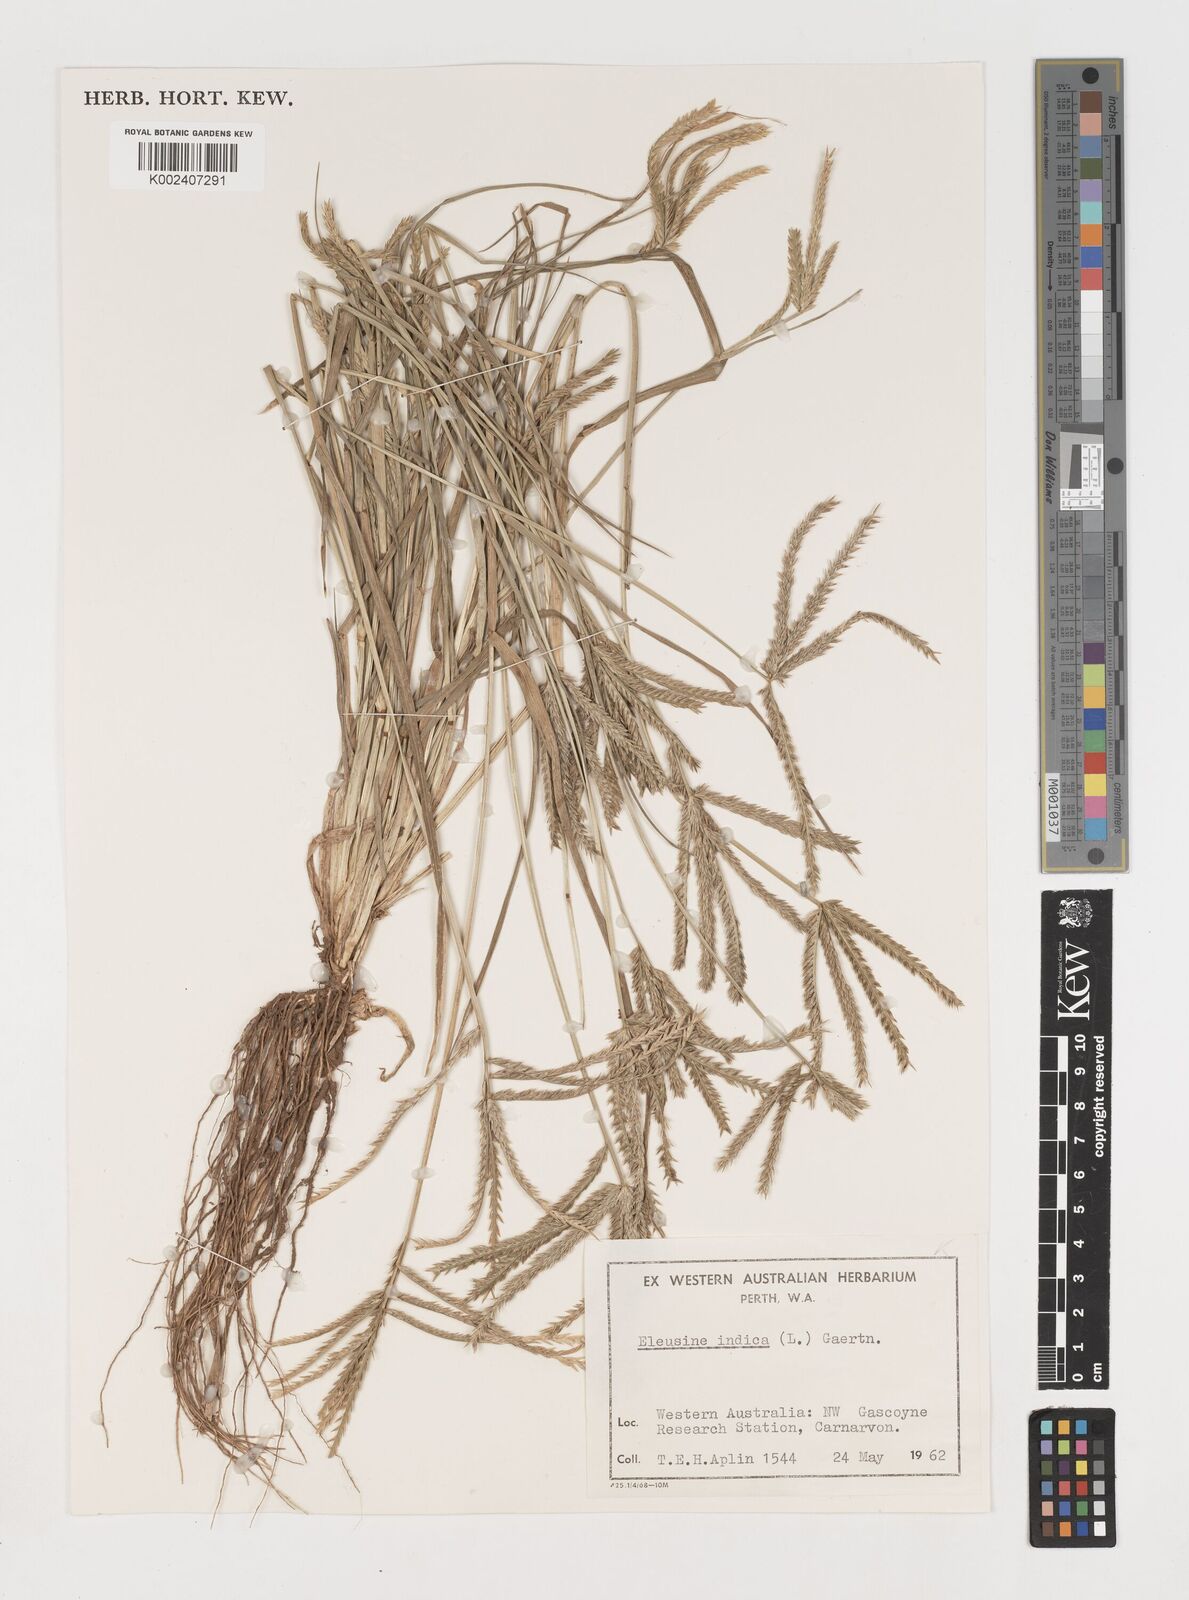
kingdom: Plantae
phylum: Tracheophyta
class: Liliopsida
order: Poales
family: Poaceae
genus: Eleusine
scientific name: Eleusine indica
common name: Yard-grass
